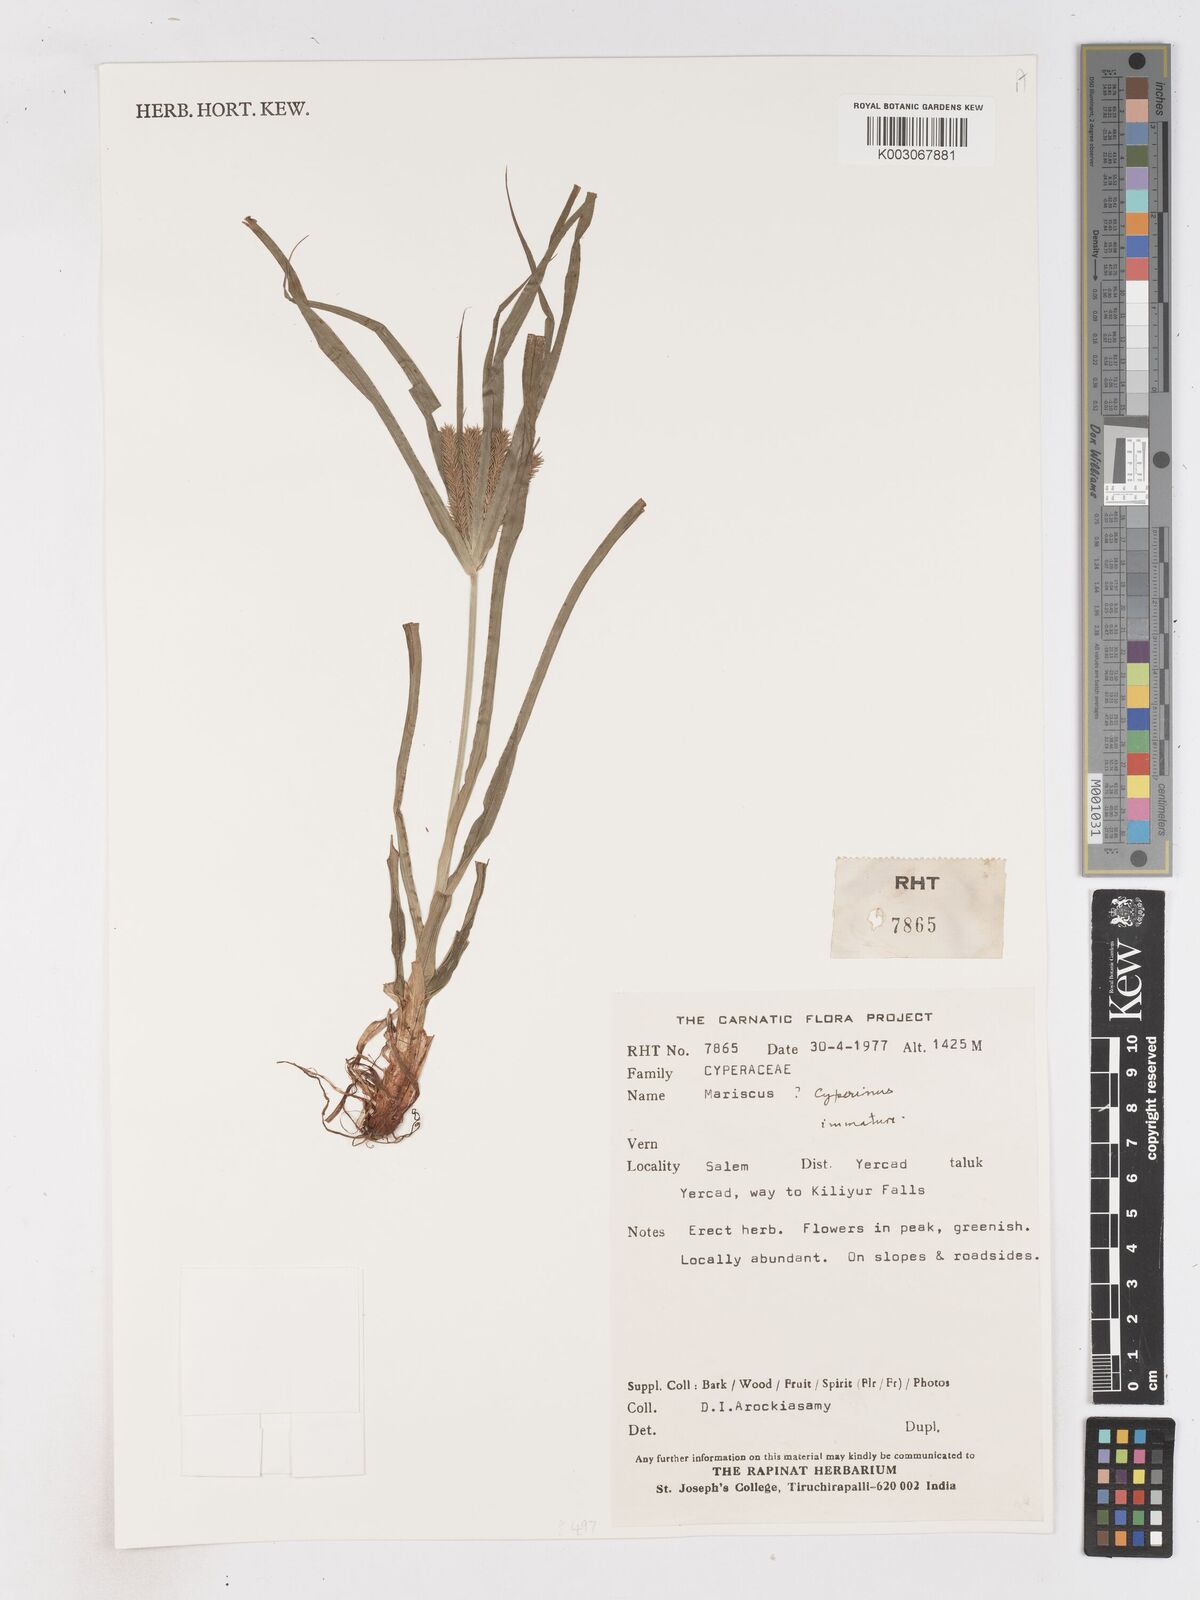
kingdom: Plantae
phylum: Tracheophyta
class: Liliopsida
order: Poales
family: Cyperaceae
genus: Cyperus
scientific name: Cyperus cyperinus
